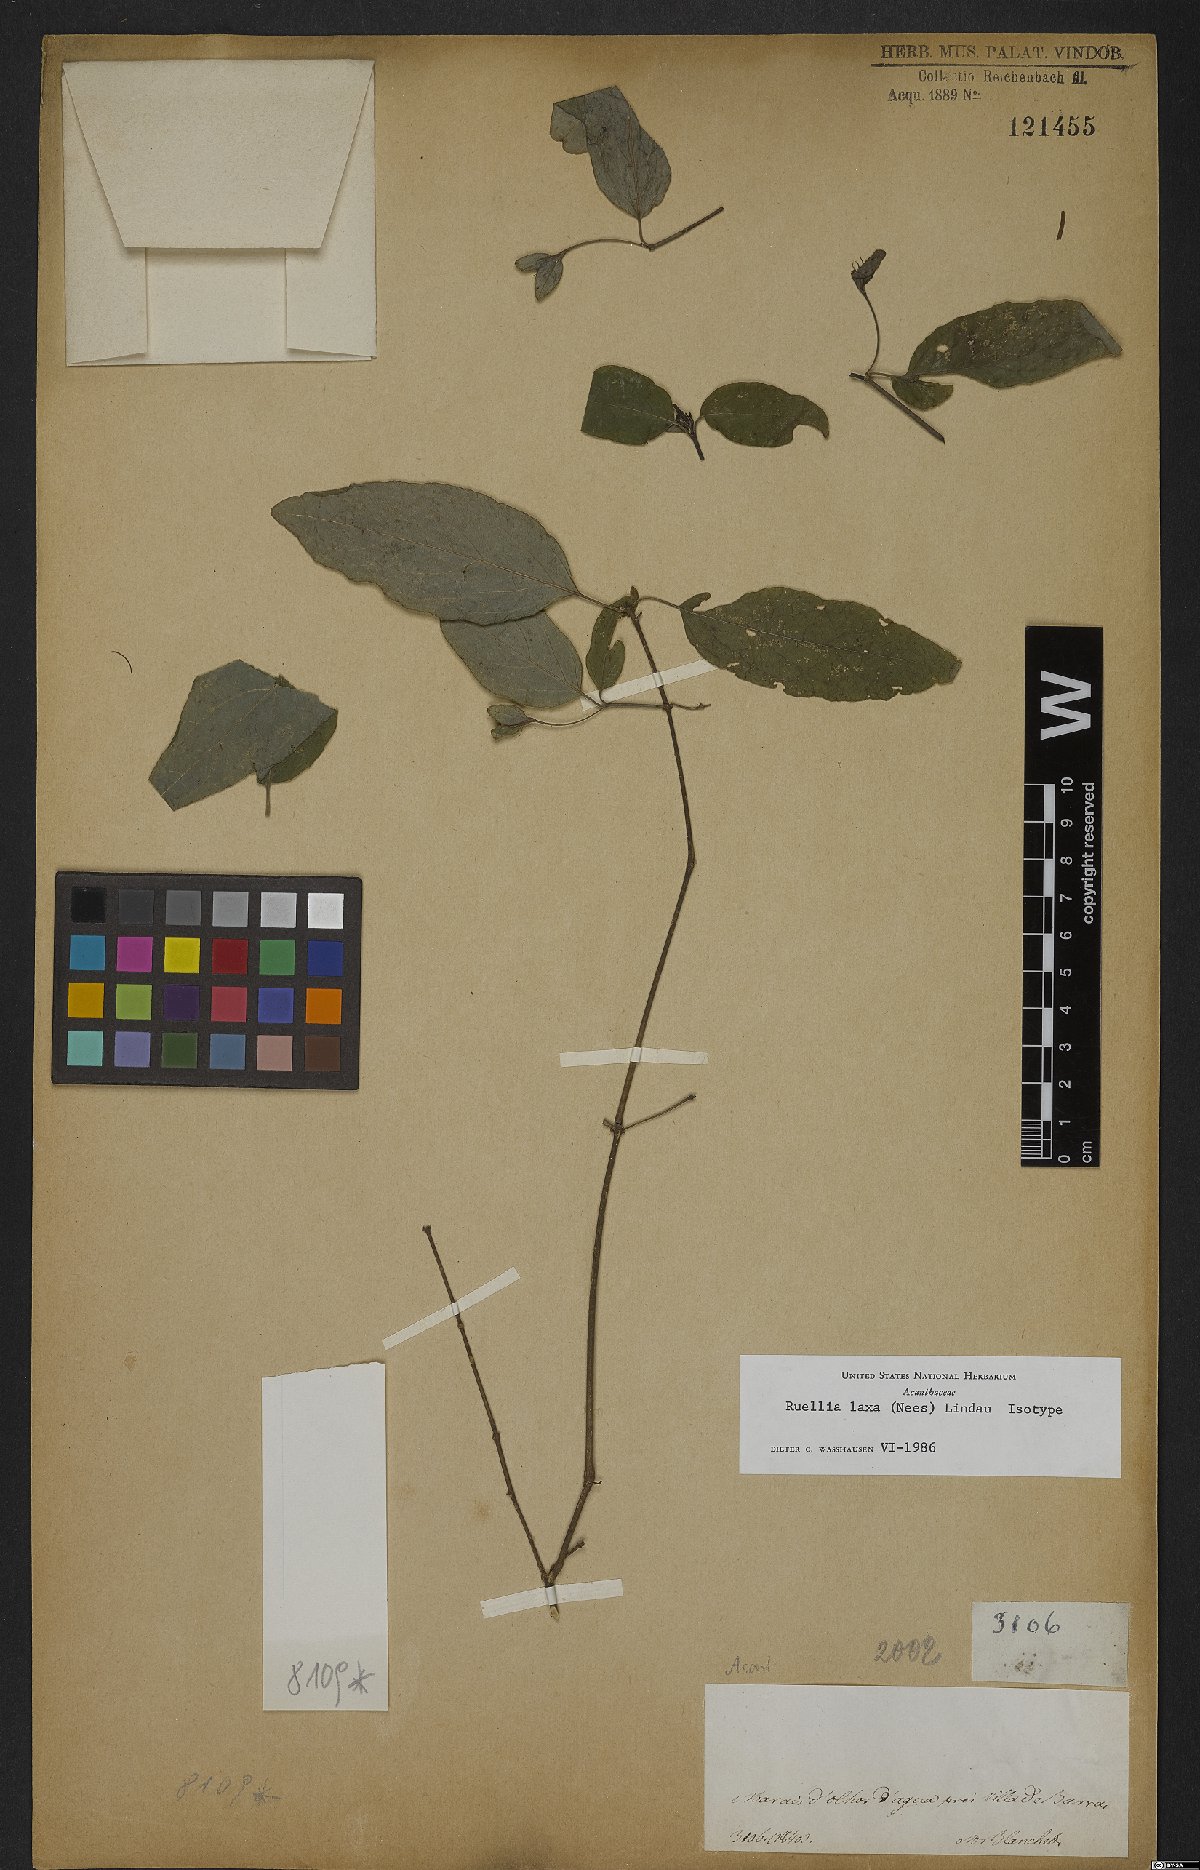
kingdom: Plantae
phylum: Tracheophyta
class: Magnoliopsida
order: Lamiales
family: Acanthaceae
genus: Ruellia
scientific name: Ruellia laxa
